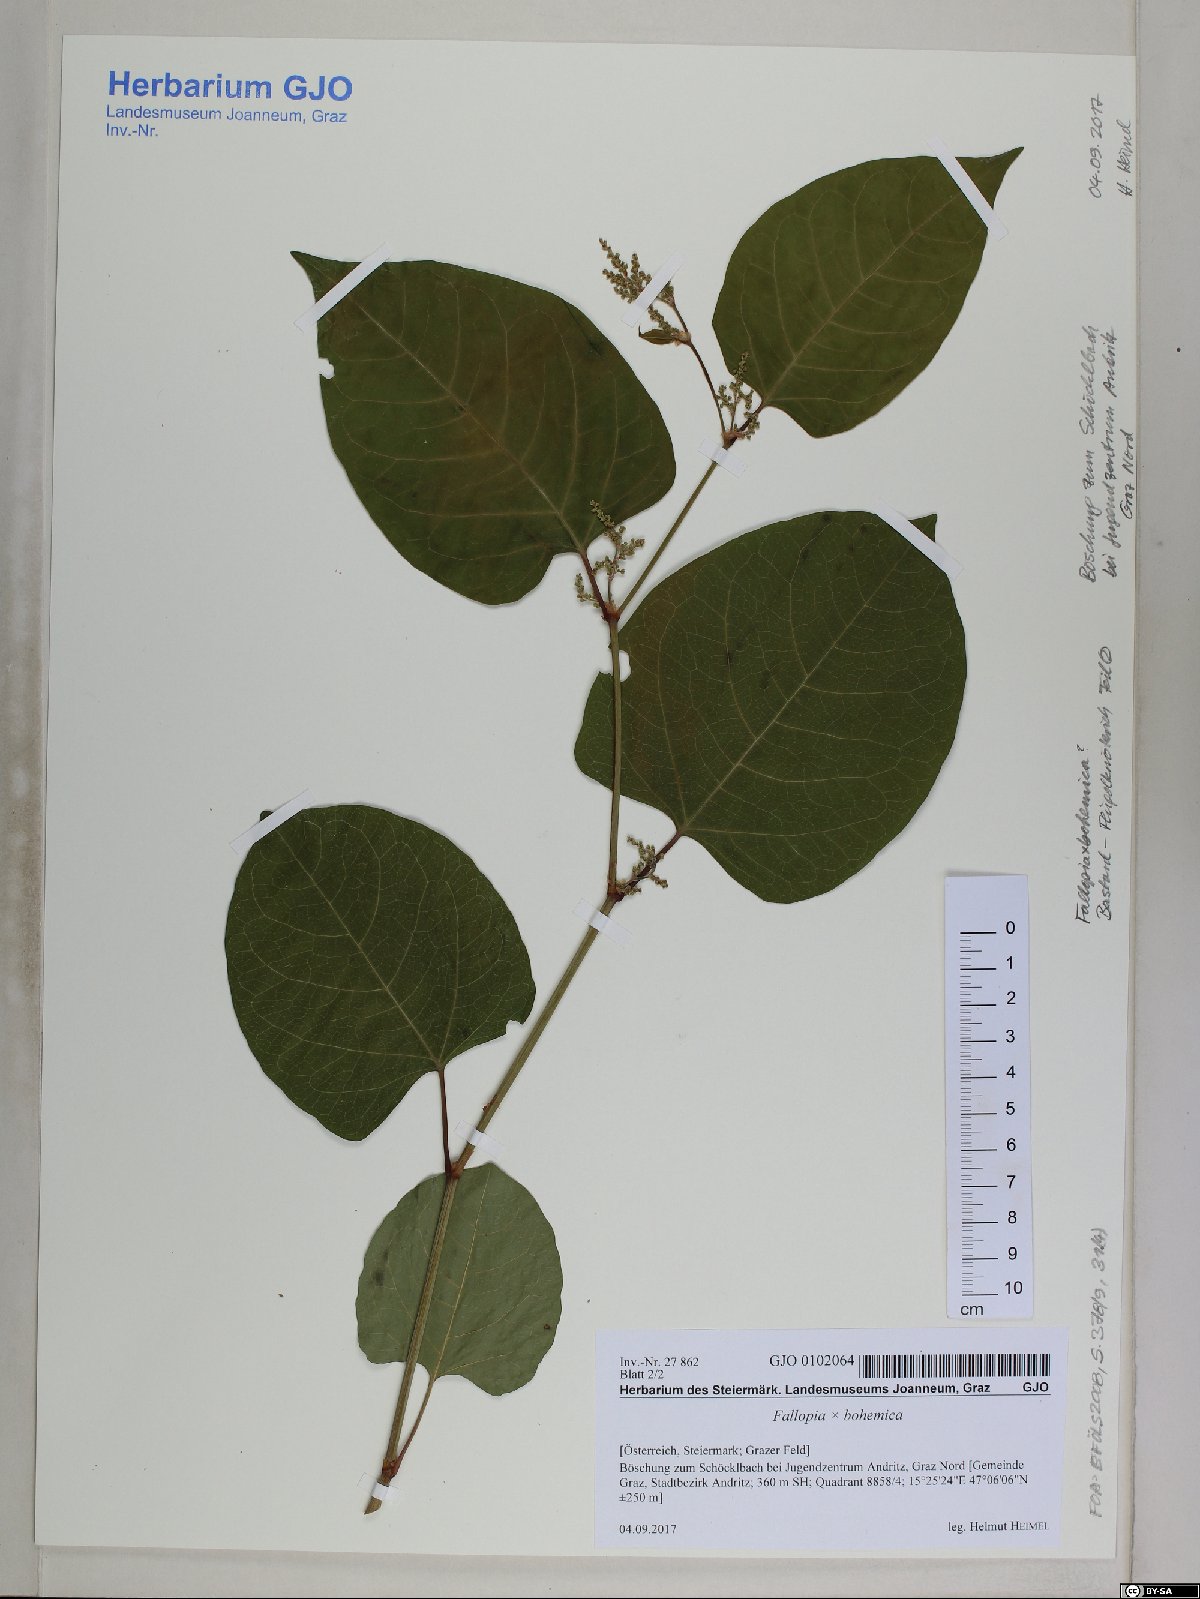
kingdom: Plantae
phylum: Tracheophyta
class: Magnoliopsida
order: Caryophyllales
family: Polygonaceae
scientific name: Polygonaceae
